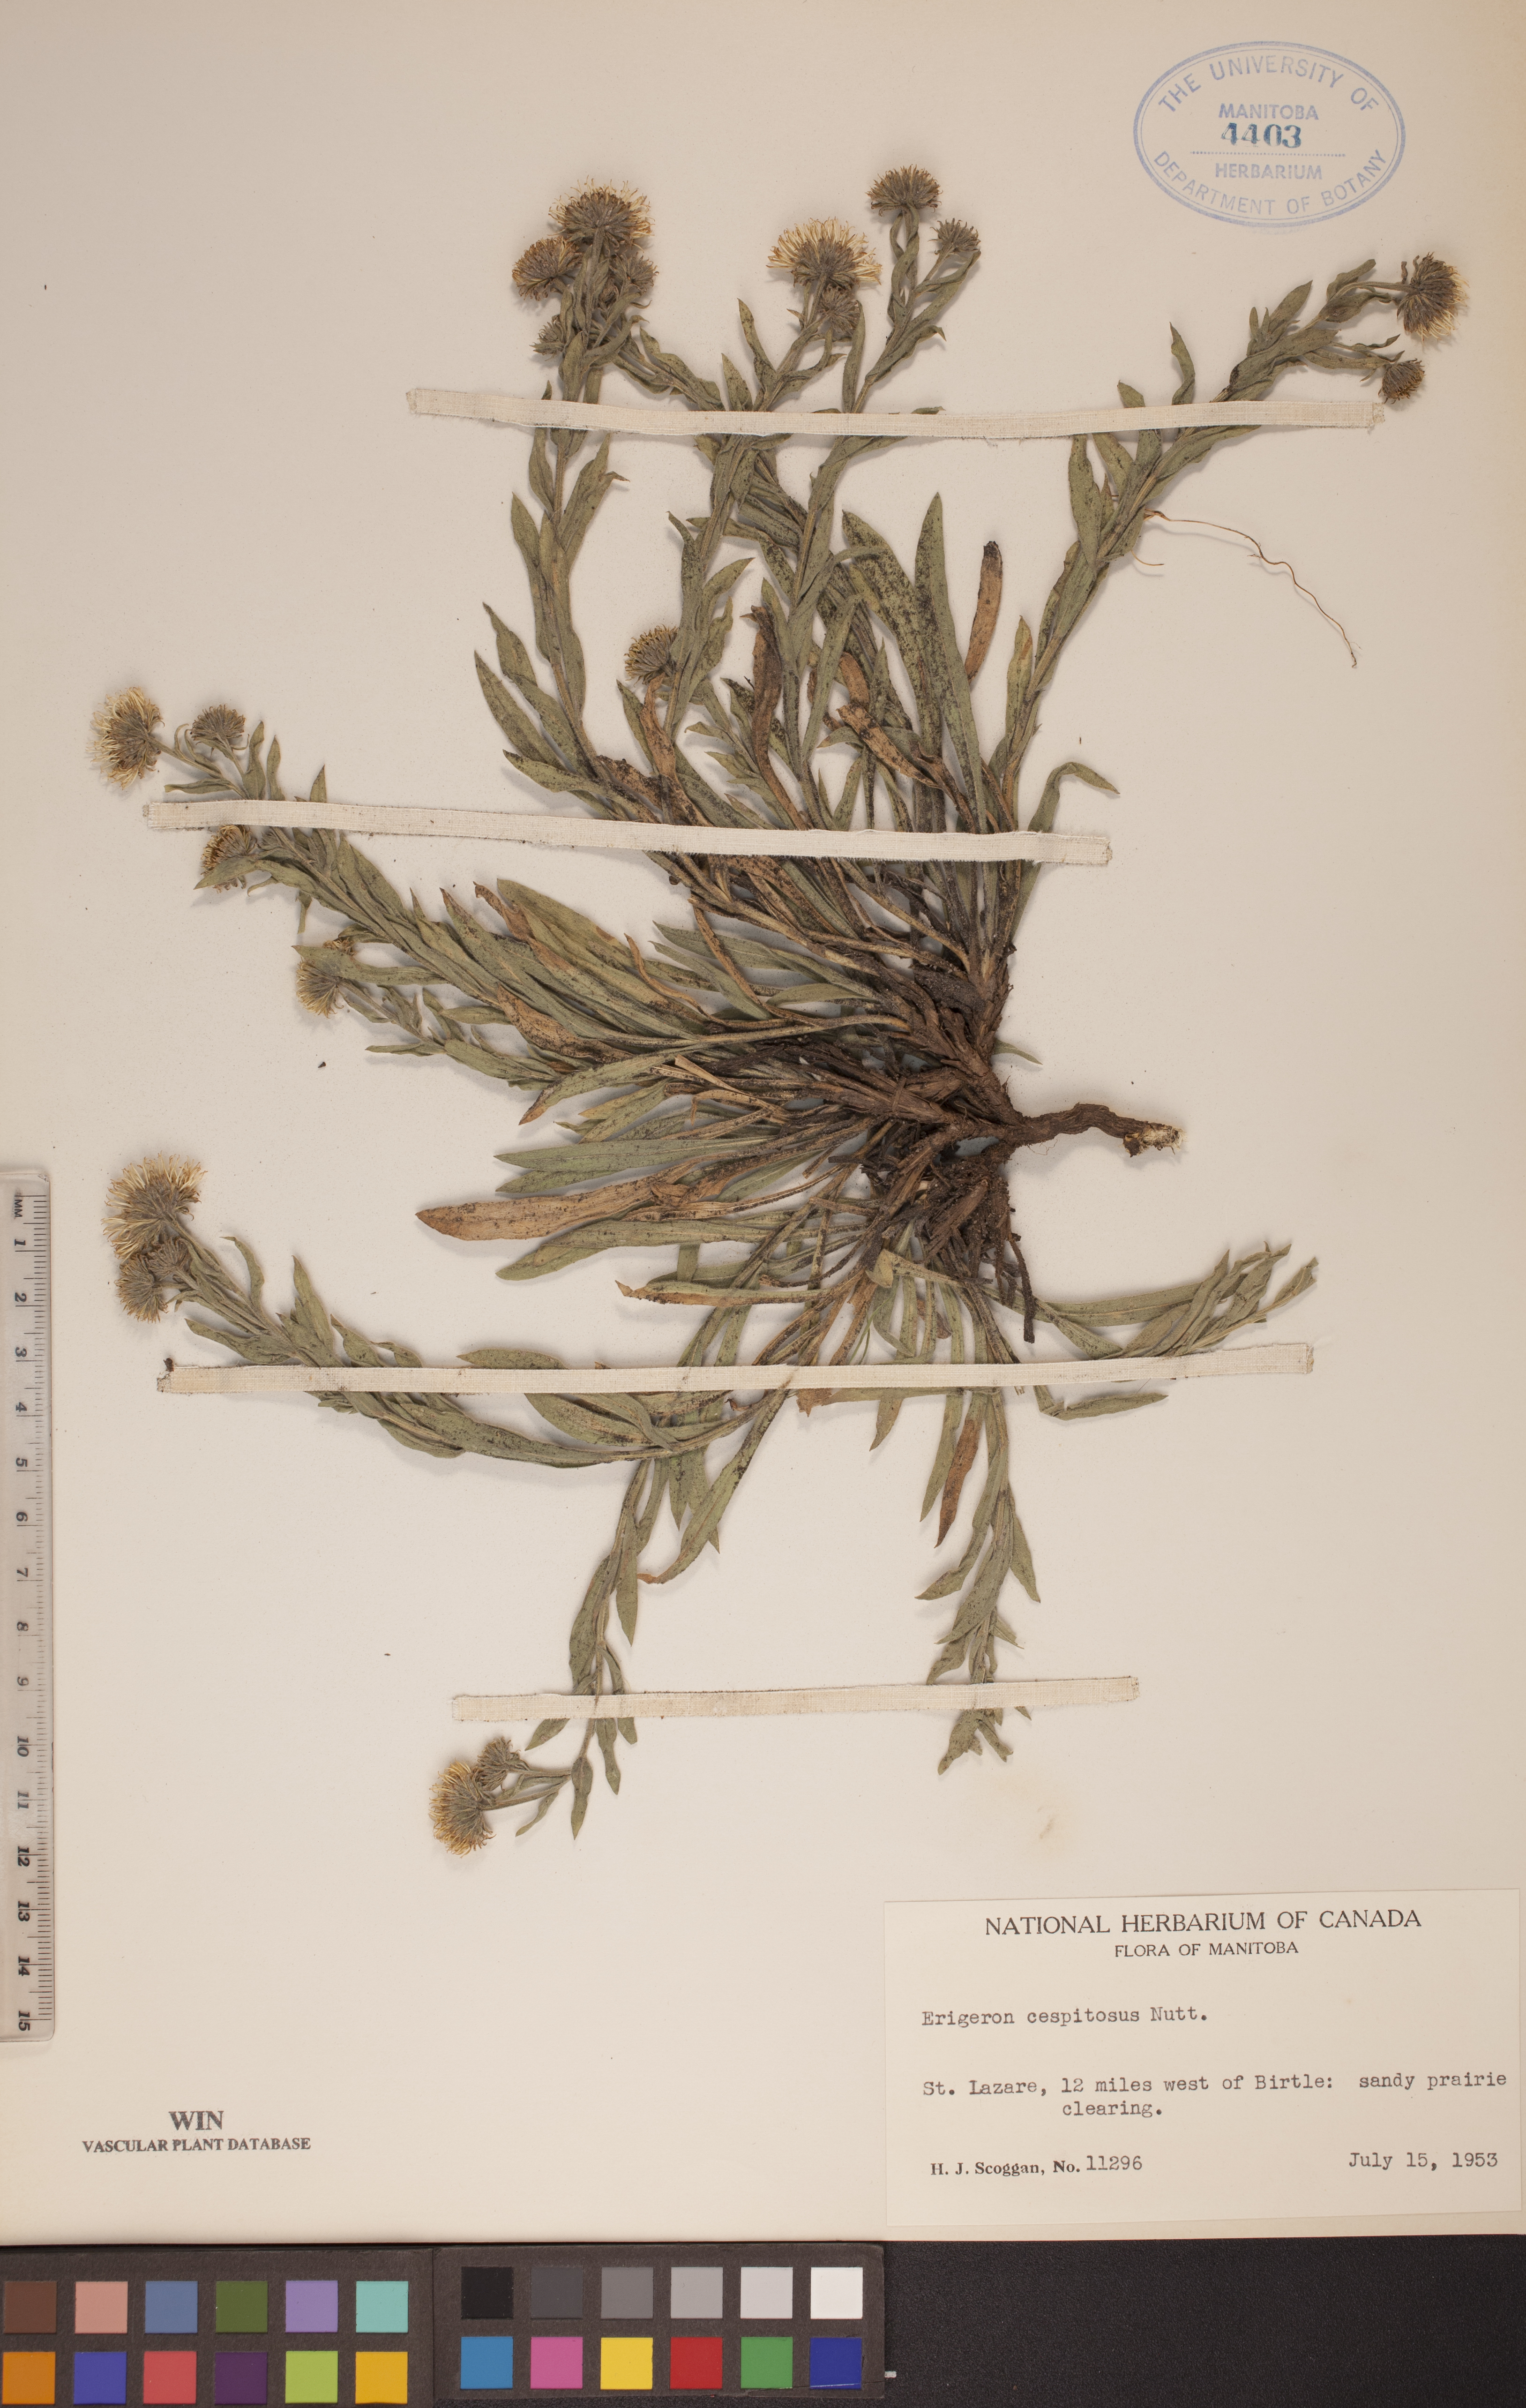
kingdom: Plantae
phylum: Tracheophyta
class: Magnoliopsida
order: Asterales
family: Asteraceae
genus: Erigeron
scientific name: Erigeron caespitosus
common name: Tufted fleabane
